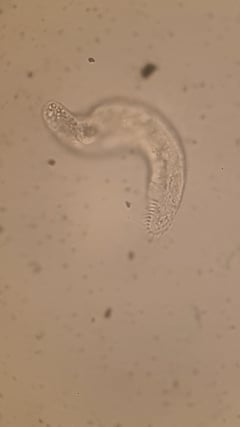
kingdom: Chromista
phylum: Ciliophora
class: Hypotrichea
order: Urostylida
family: Urostylidae
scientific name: Urostylidae
